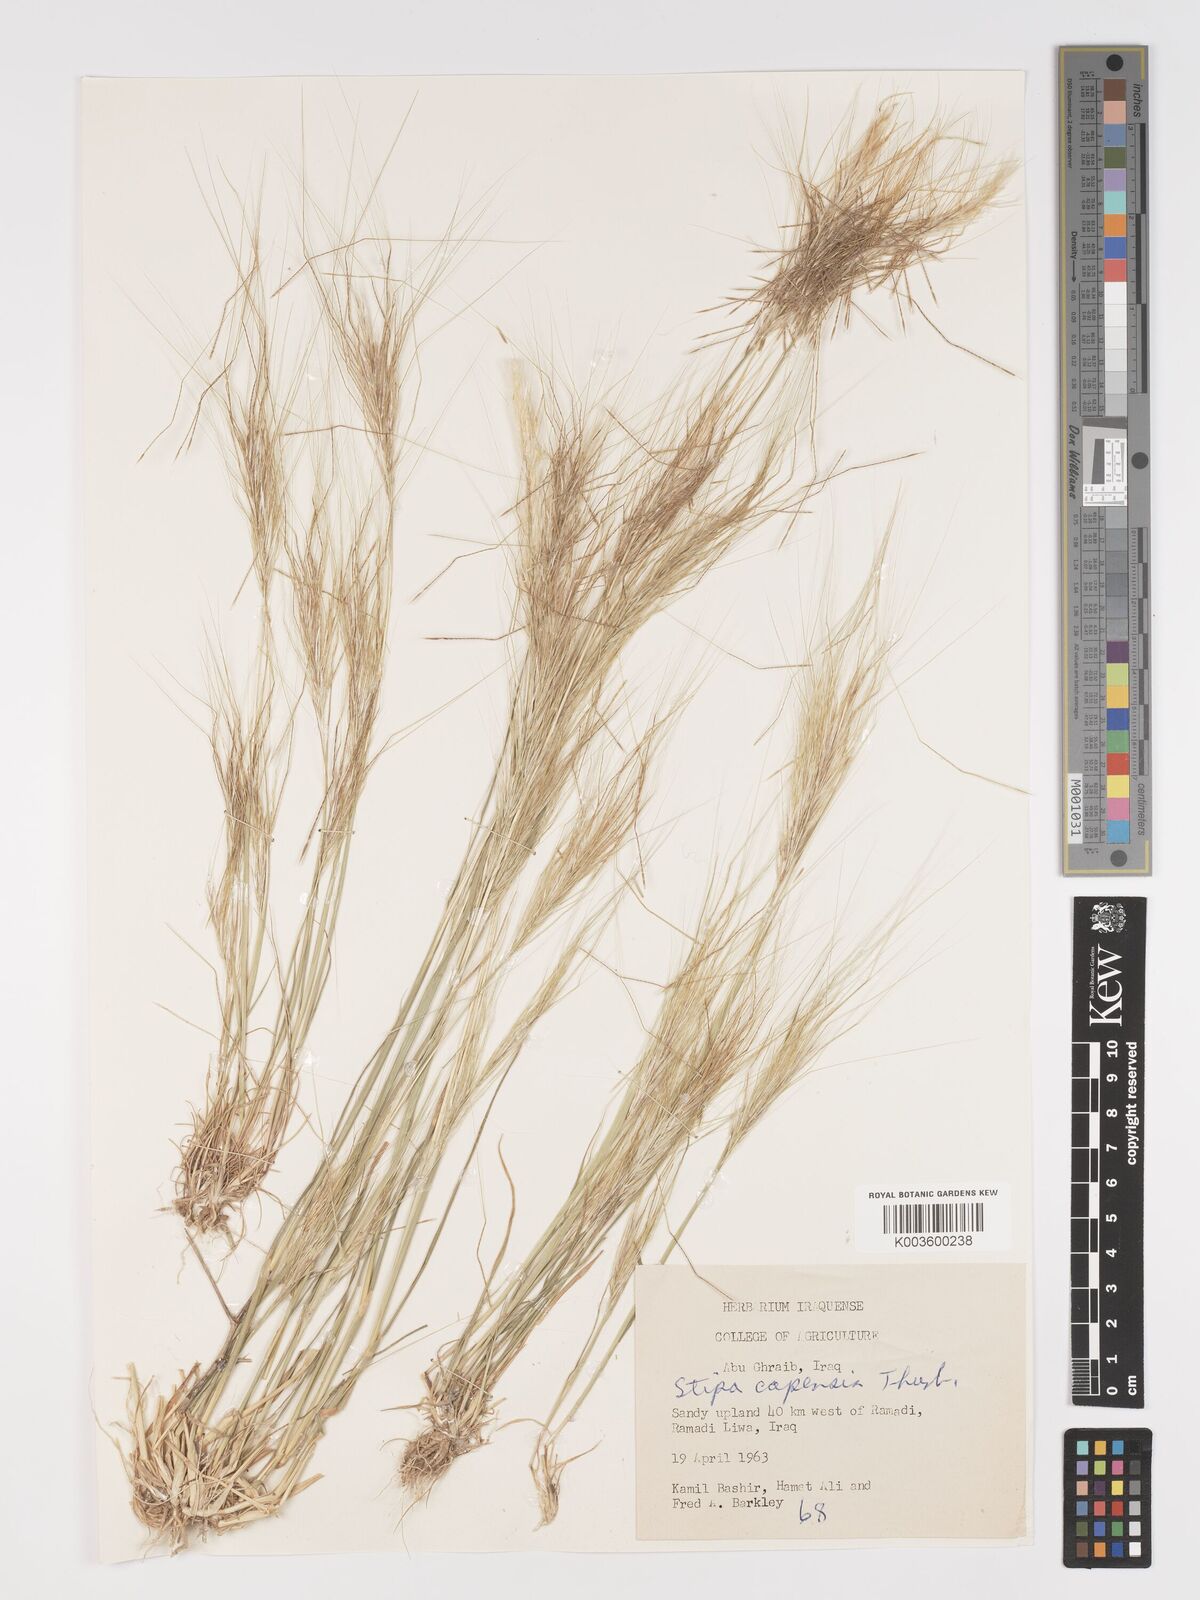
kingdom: Plantae
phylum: Tracheophyta
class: Liliopsida
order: Poales
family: Poaceae
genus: Stipellula
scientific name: Stipellula capensis
